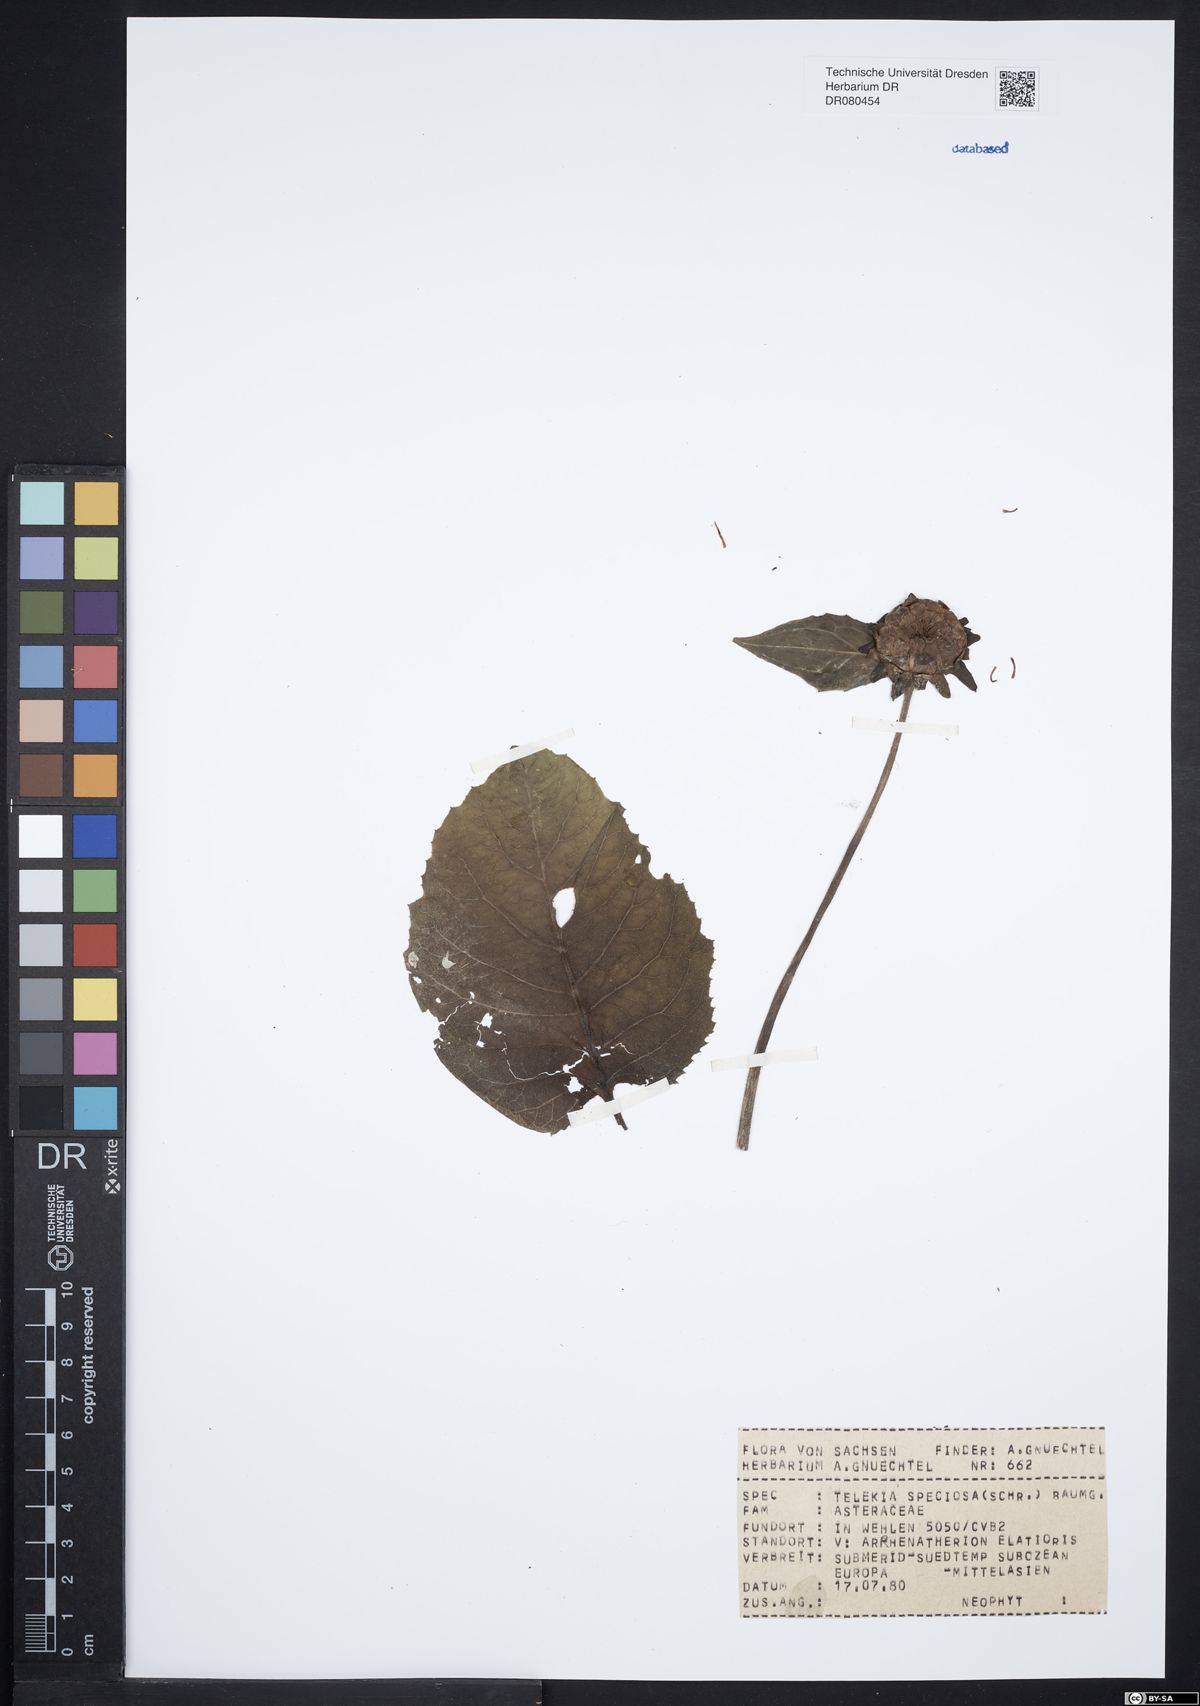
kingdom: Plantae
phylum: Tracheophyta
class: Magnoliopsida
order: Asterales
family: Asteraceae
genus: Telekia
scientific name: Telekia speciosa
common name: Yellow oxeye
